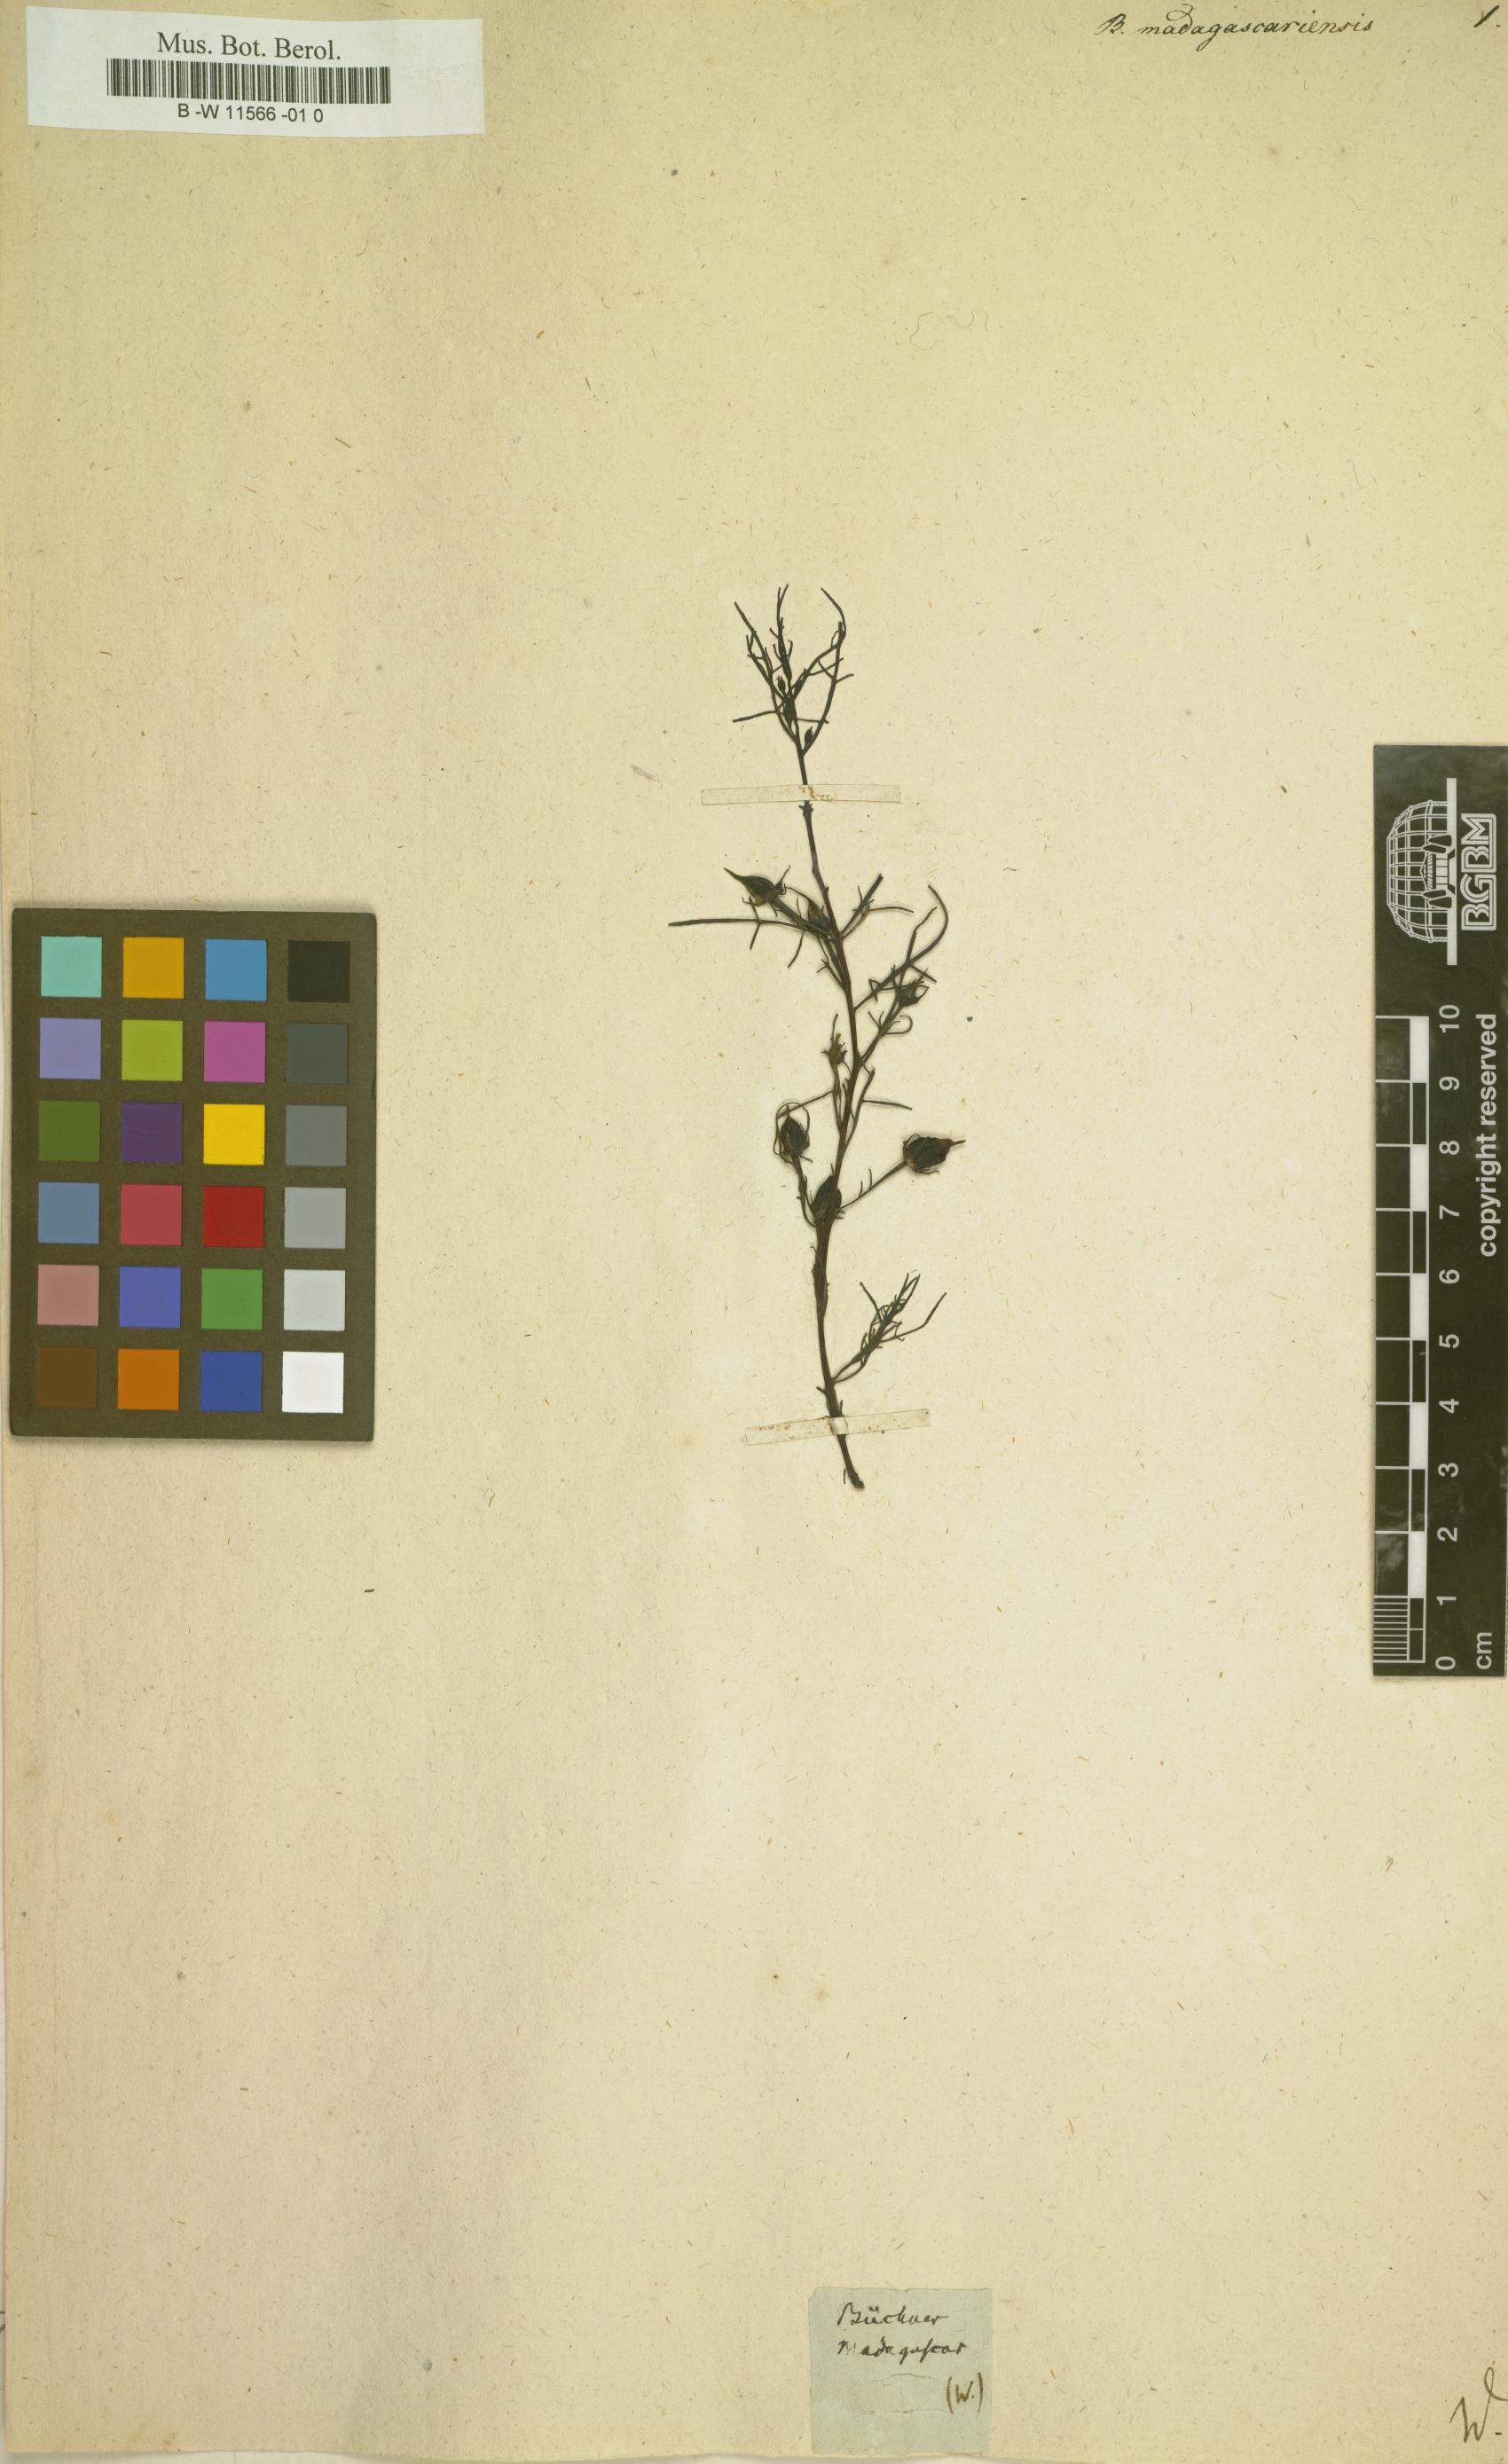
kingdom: Plantae
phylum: Tracheophyta
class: Magnoliopsida
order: Lamiales
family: Orobanchaceae
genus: Buchnera
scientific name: Buchnera
